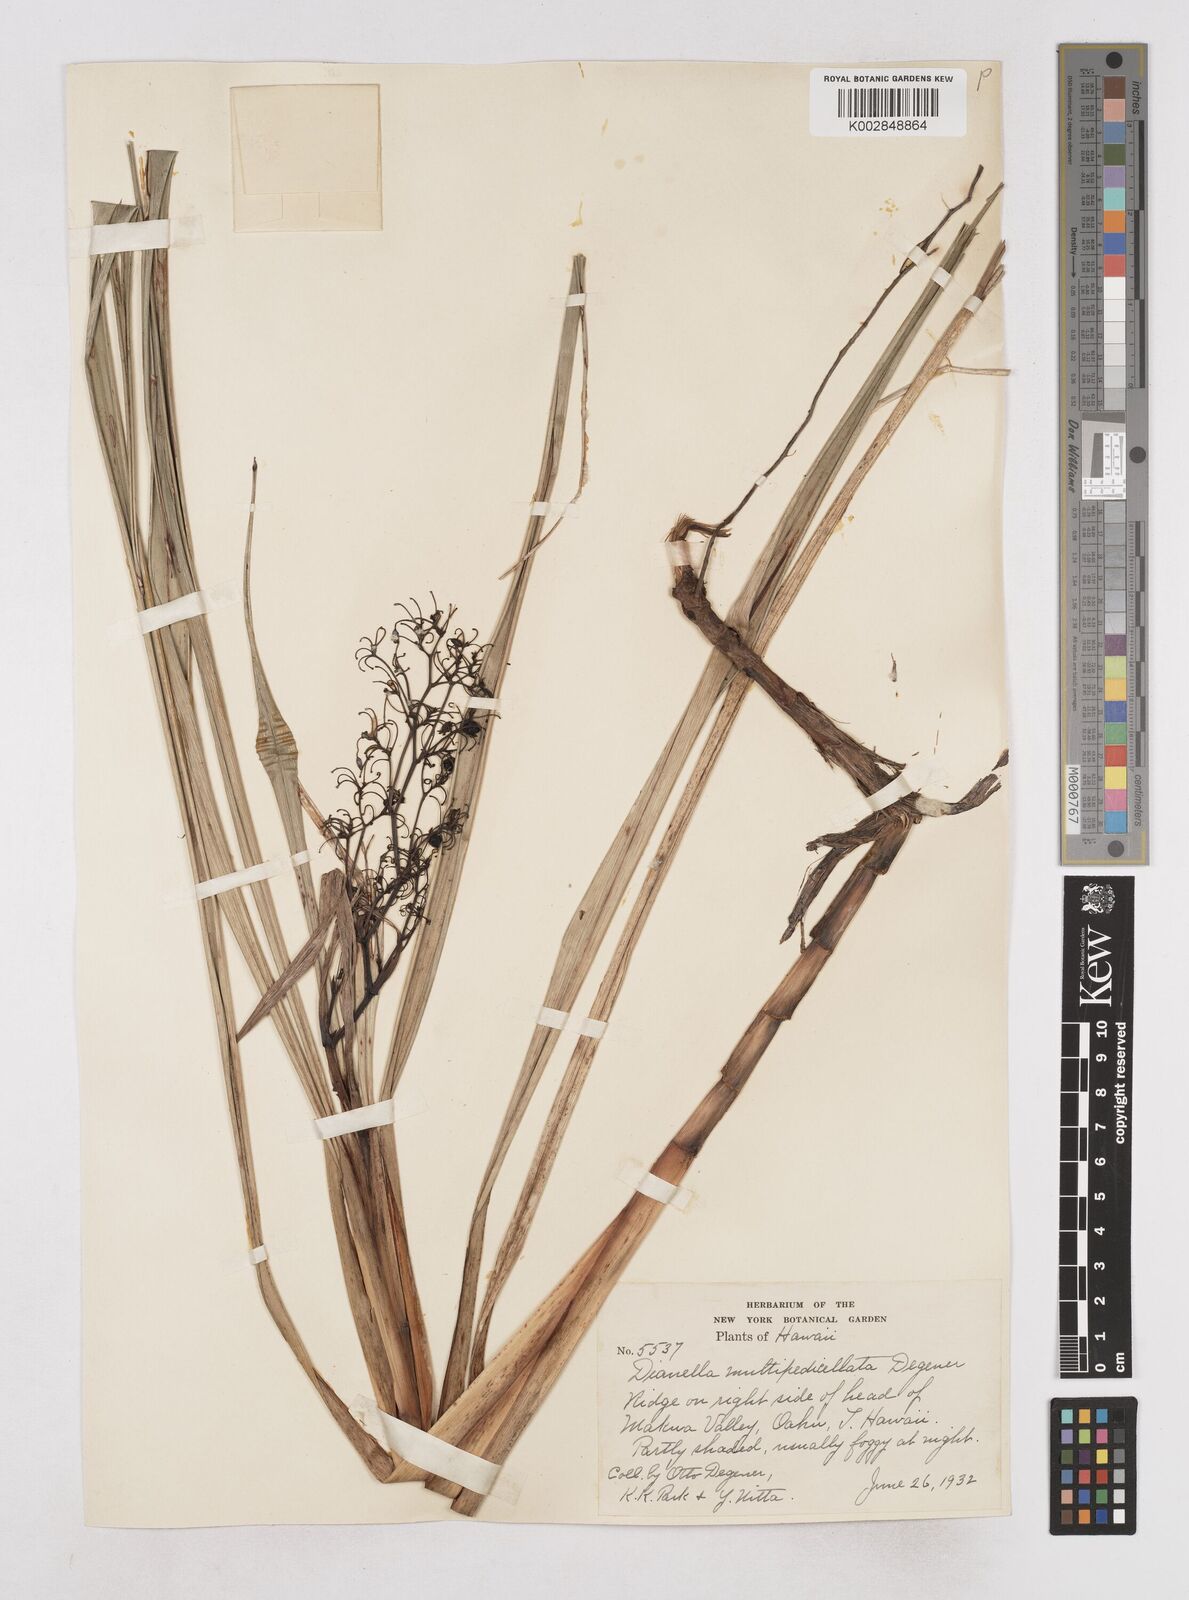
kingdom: Plantae
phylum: Tracheophyta
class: Liliopsida
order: Asparagales
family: Asphodelaceae
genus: Dianella
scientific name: Dianella sandwicensis
